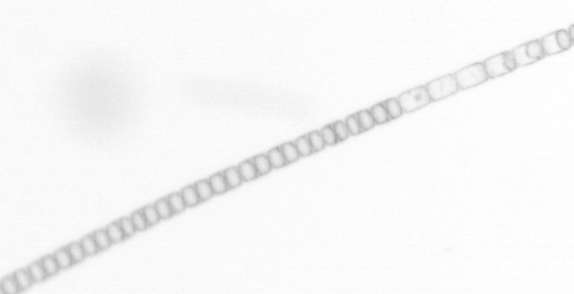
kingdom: Chromista
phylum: Ochrophyta
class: Bacillariophyceae
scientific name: Bacillariophyceae
